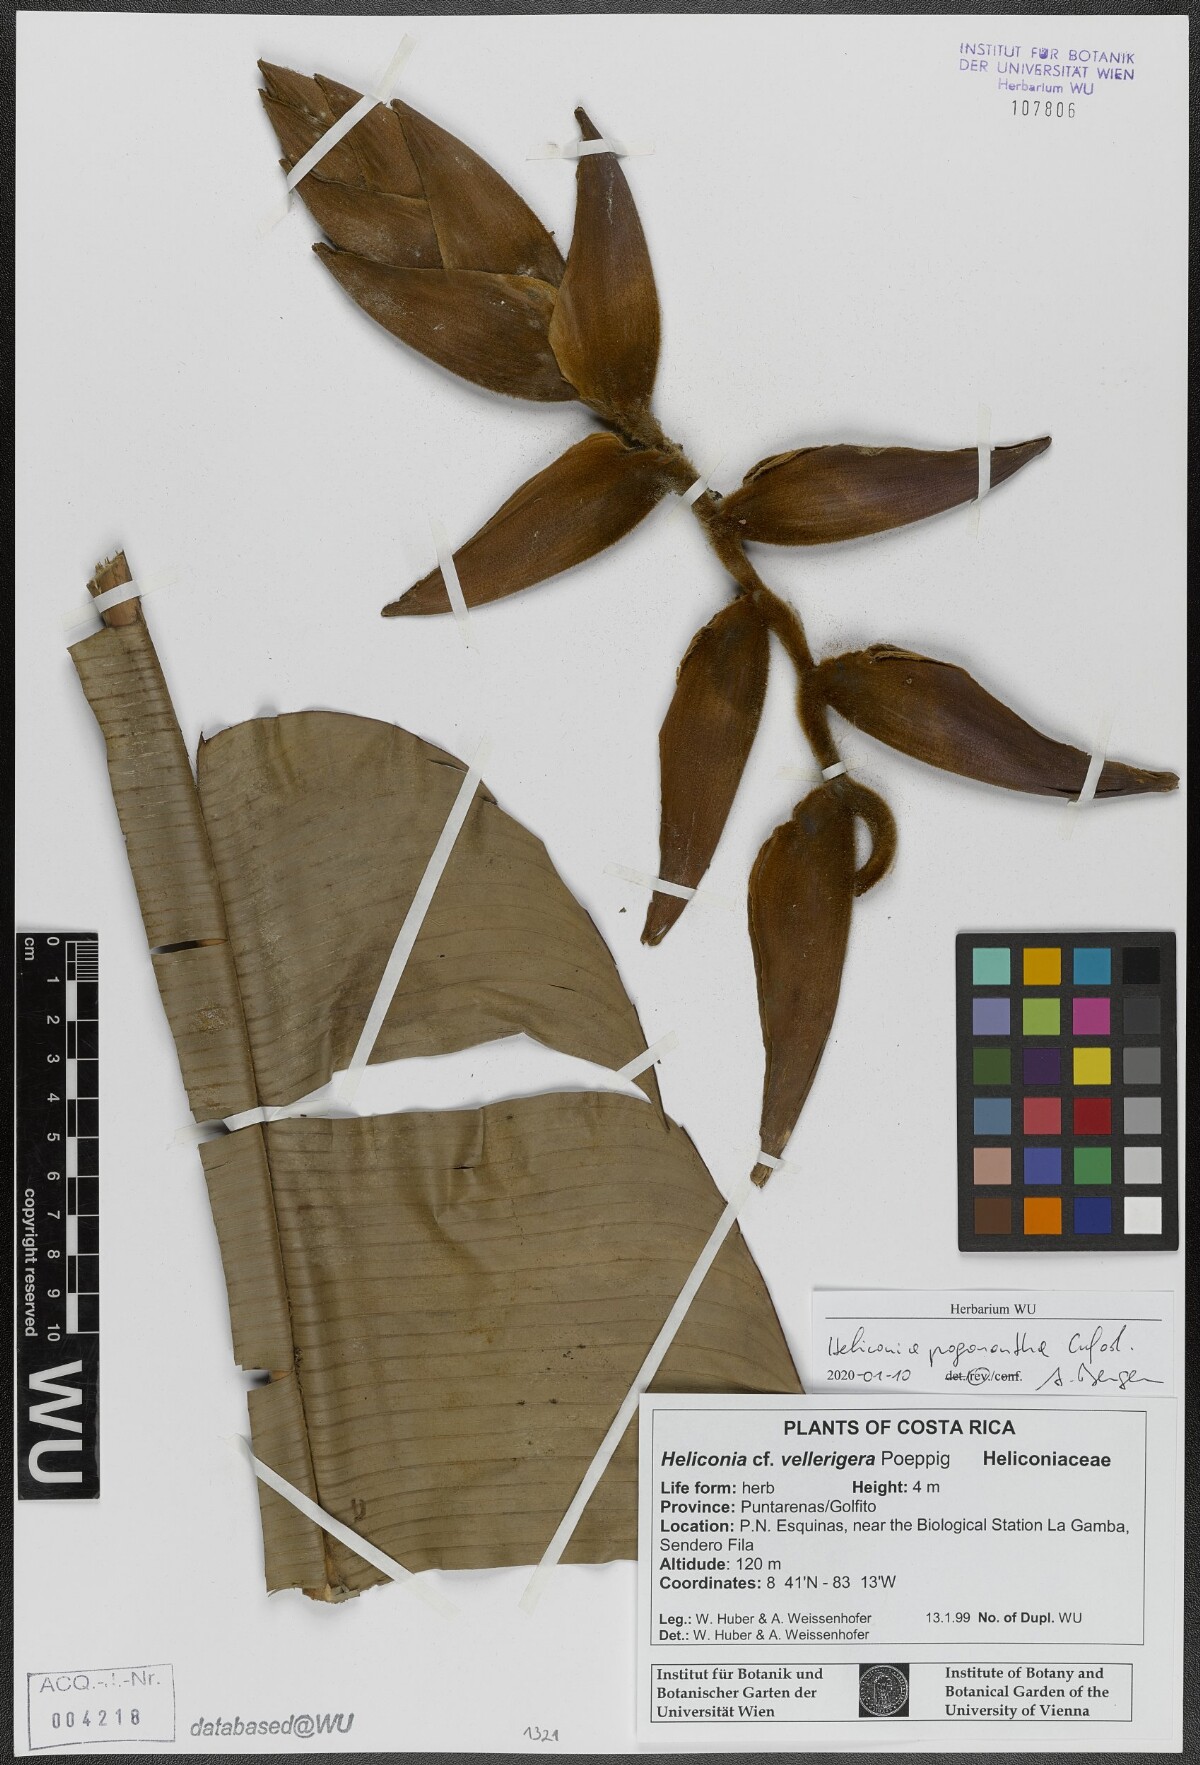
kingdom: Plantae
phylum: Tracheophyta
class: Liliopsida
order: Zingiberales
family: Heliconiaceae
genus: Heliconia
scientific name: Heliconia pogonantha
